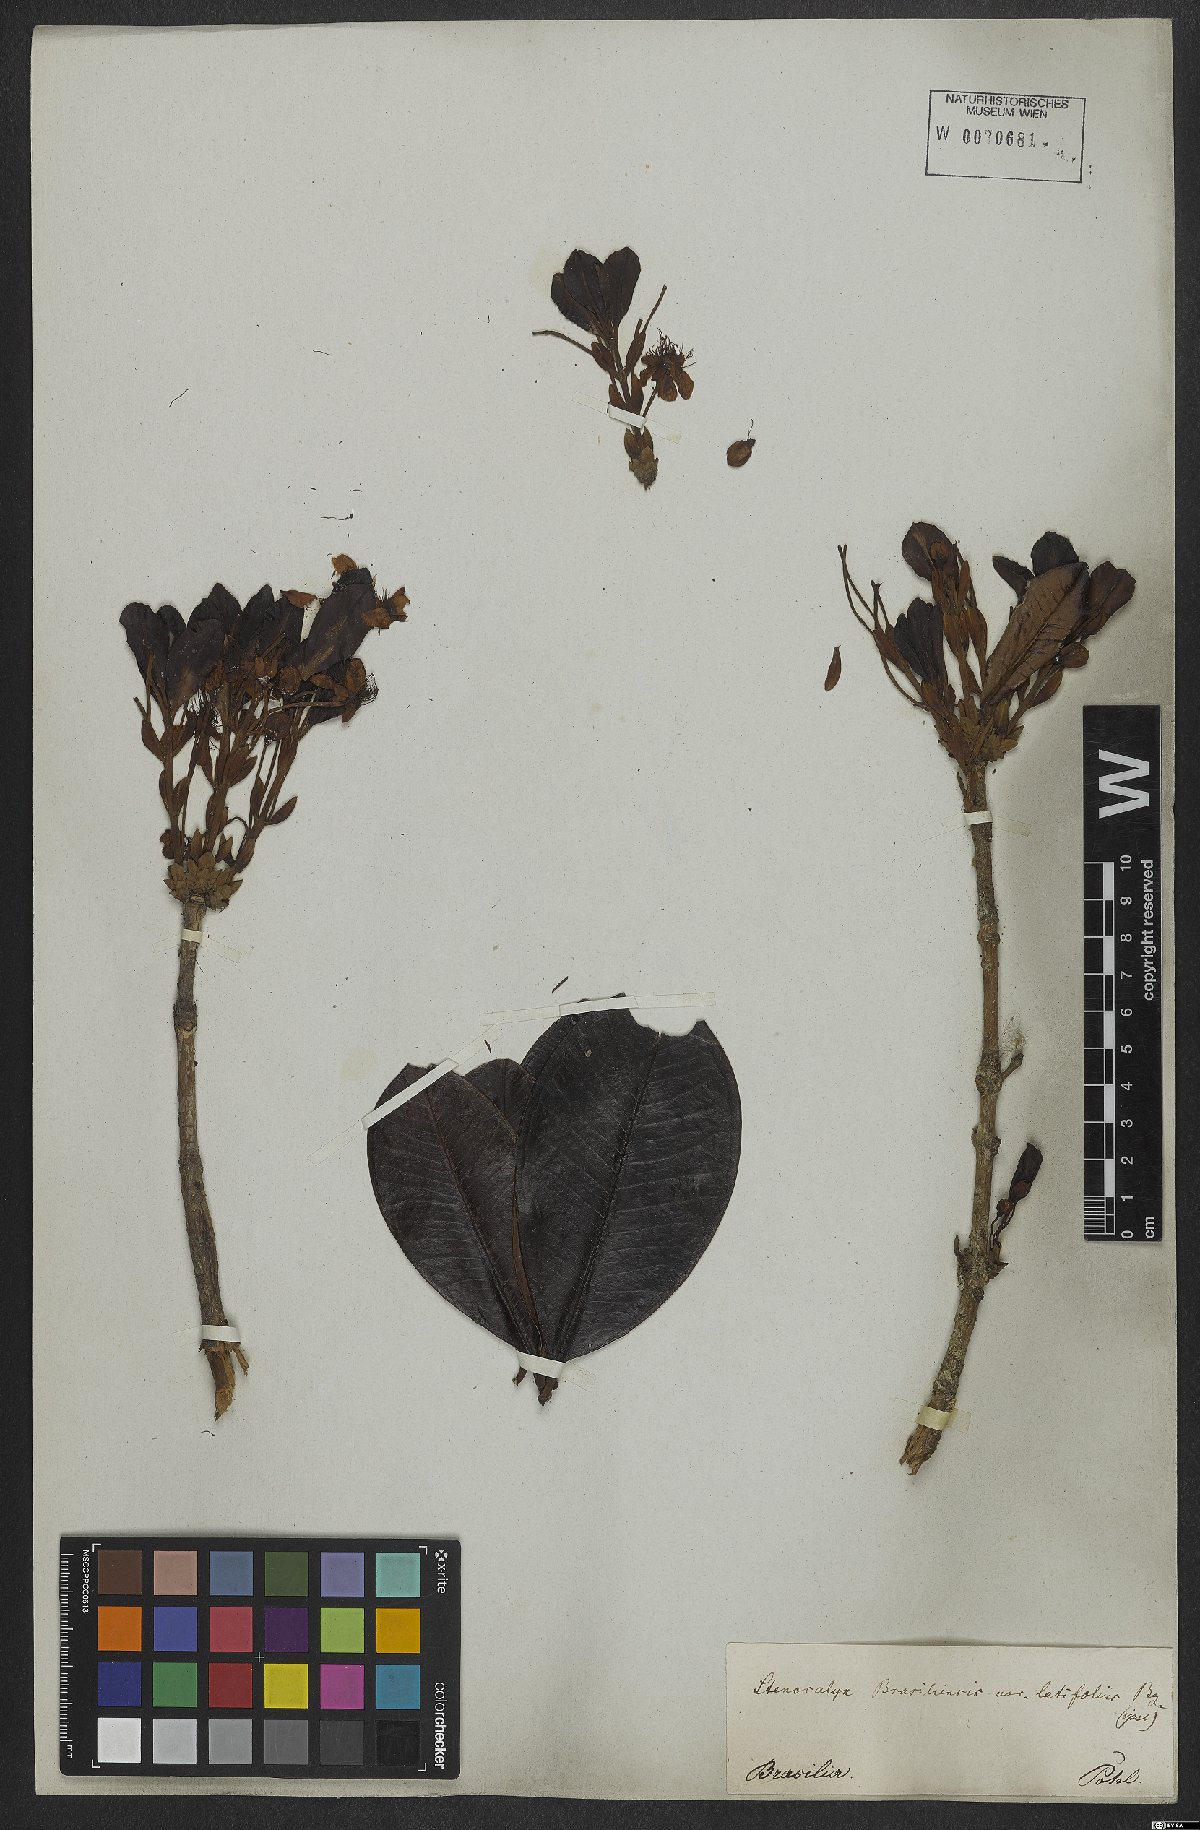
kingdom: Plantae
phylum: Tracheophyta
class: Magnoliopsida
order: Myrtales
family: Myrtaceae
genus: Eugenia
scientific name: Eugenia brasiliensis
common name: Grumichama
